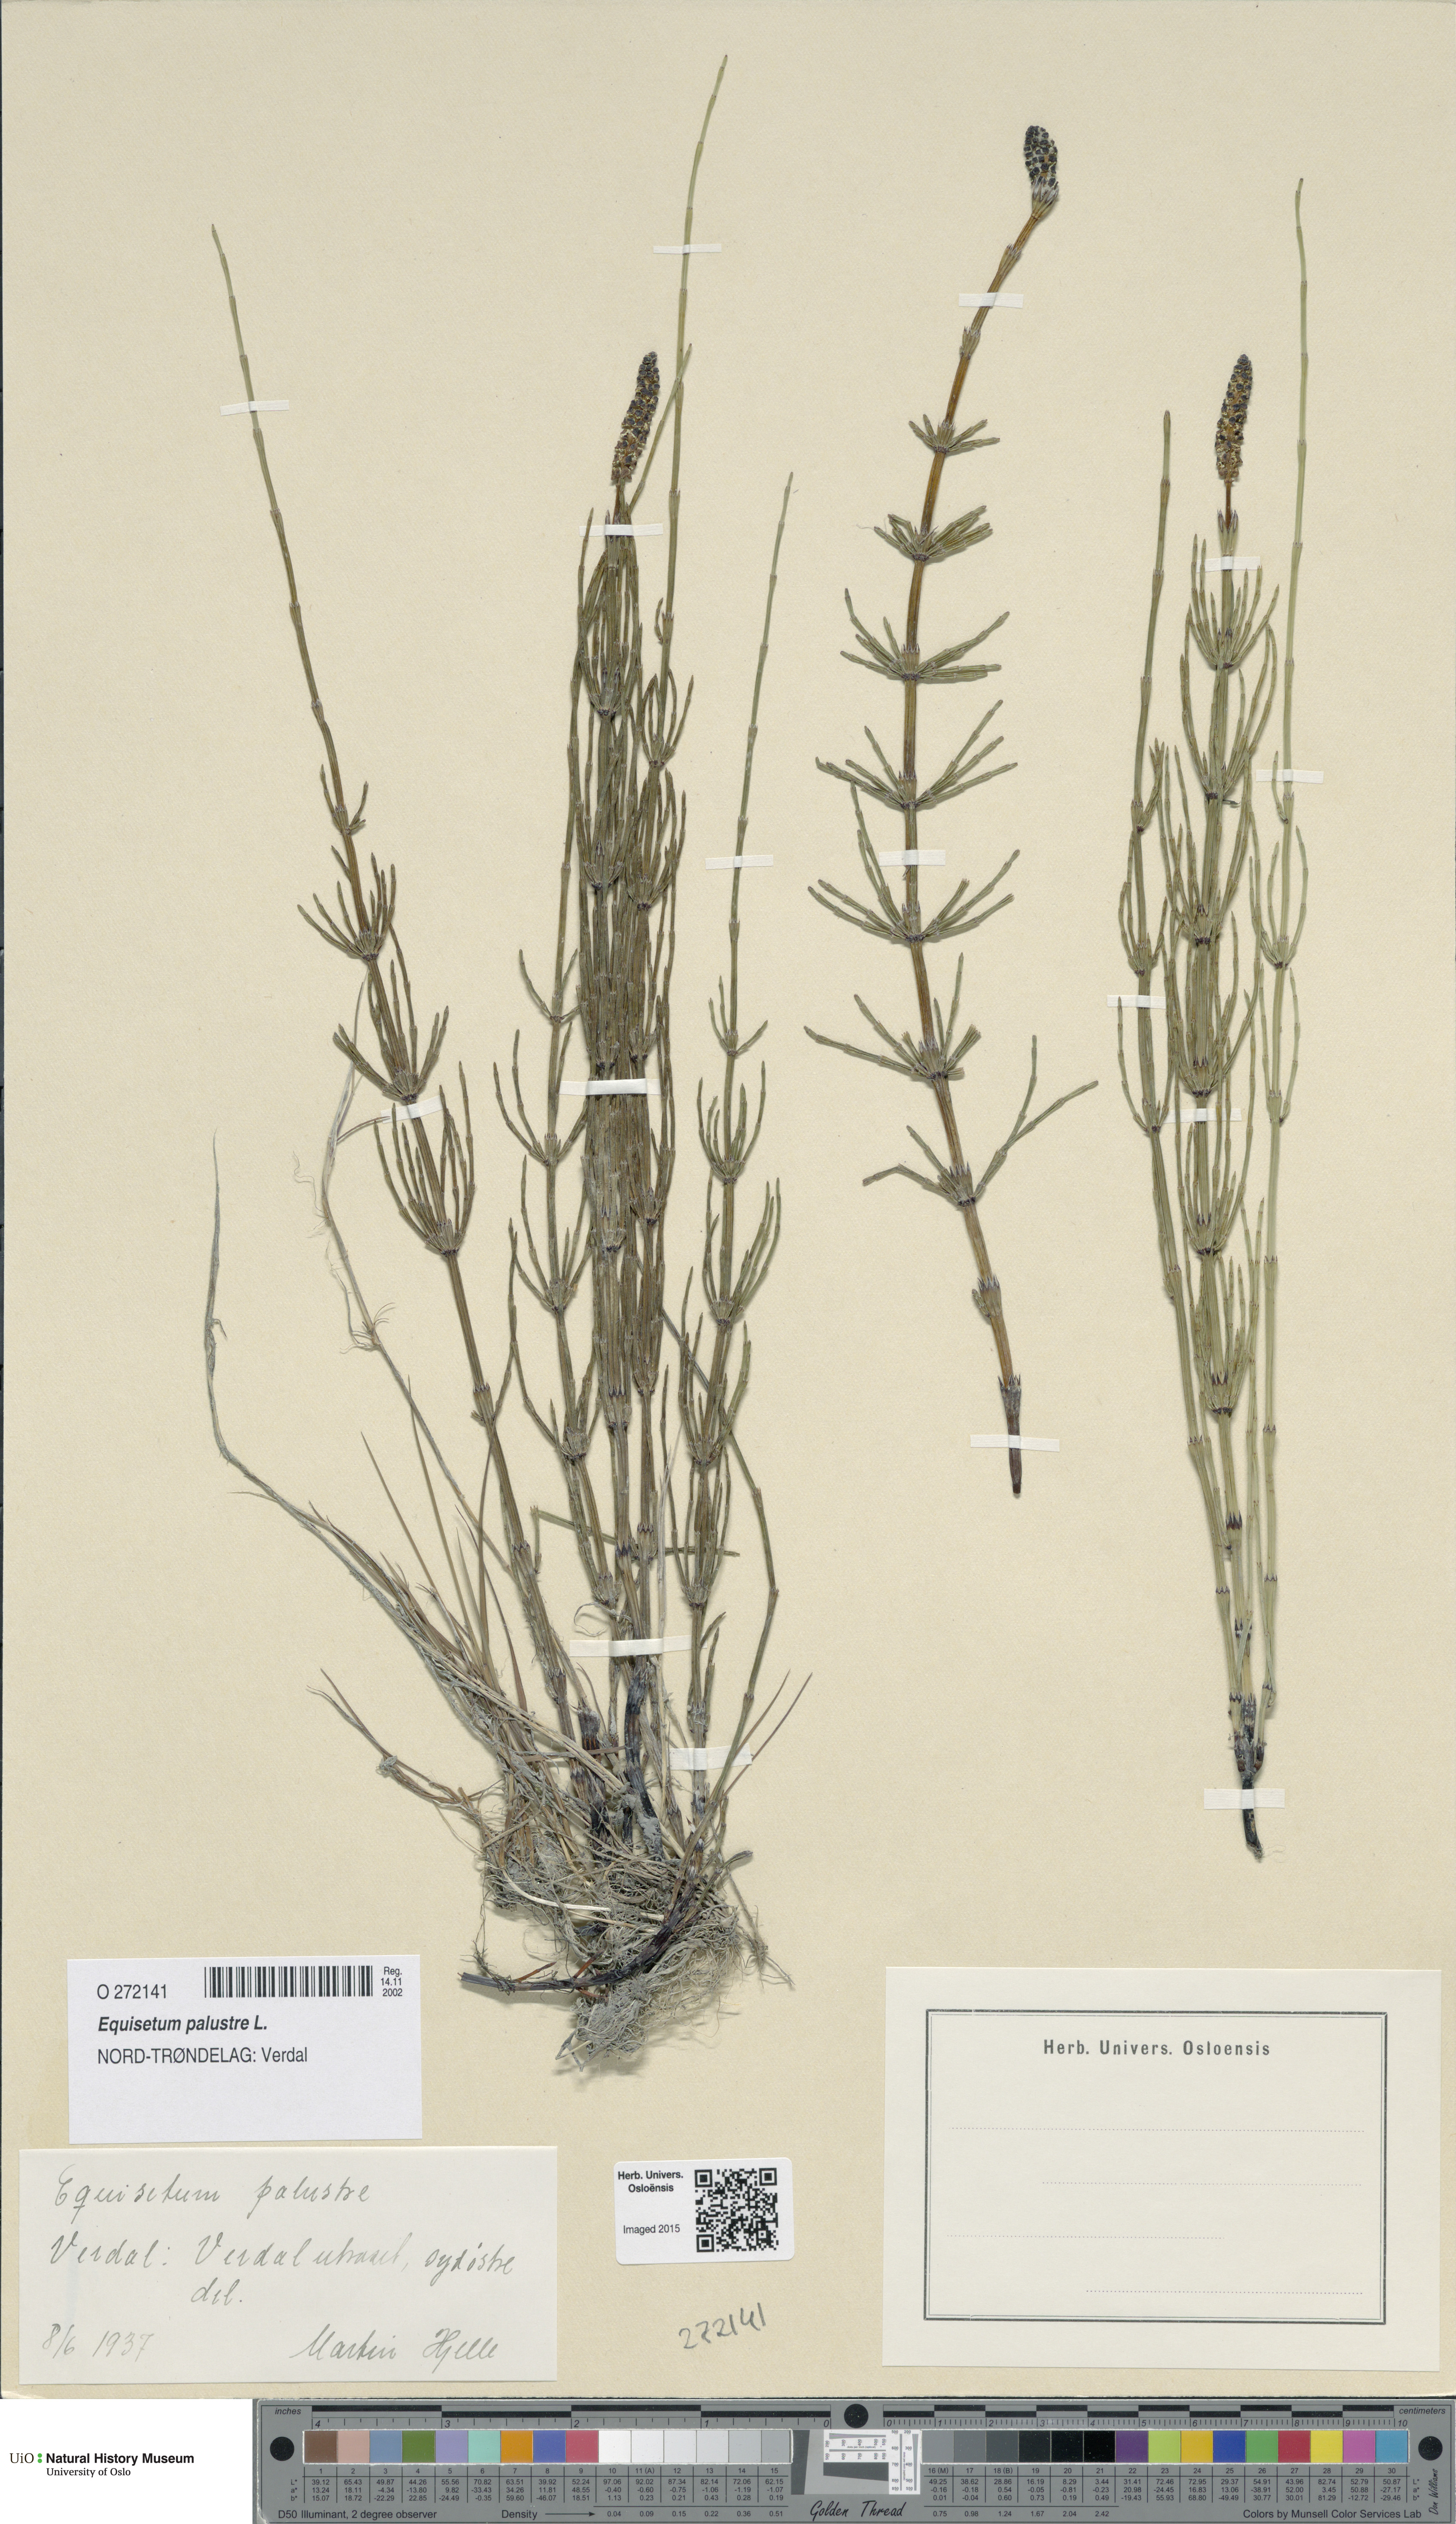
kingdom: Plantae
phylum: Tracheophyta
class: Polypodiopsida
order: Equisetales
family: Equisetaceae
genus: Equisetum
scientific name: Equisetum palustre
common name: Marsh horsetail
